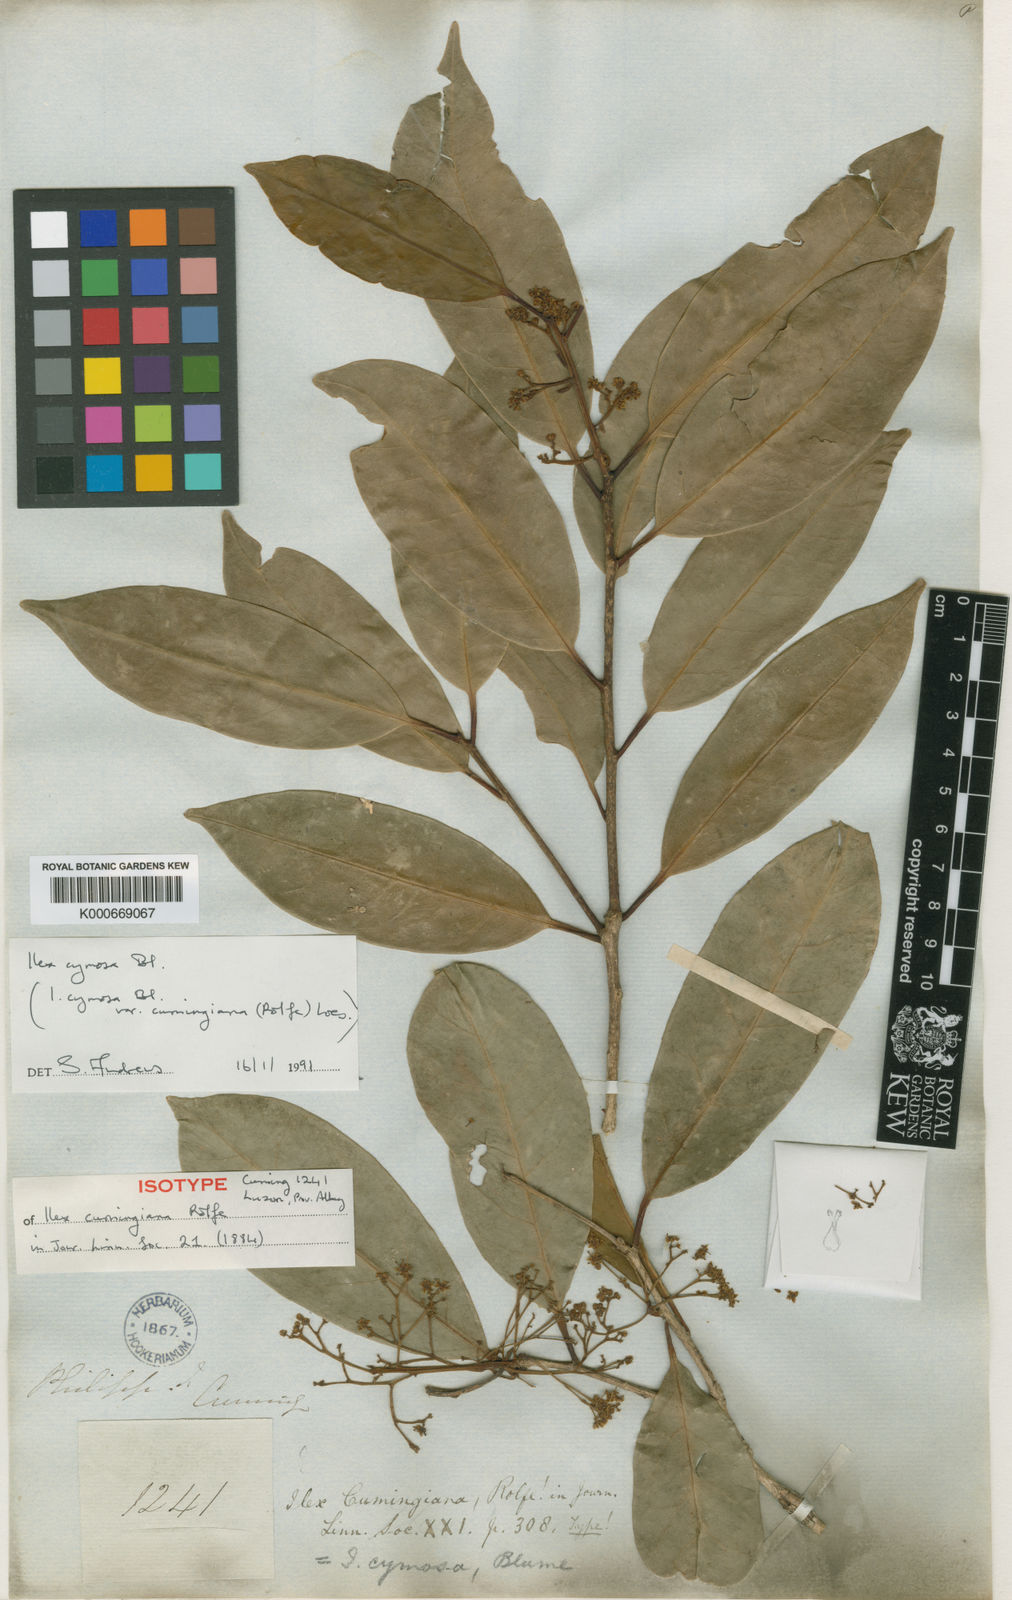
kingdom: Plantae
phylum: Tracheophyta
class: Magnoliopsida
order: Aquifoliales
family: Aquifoliaceae
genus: Ilex
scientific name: Ilex cymosa
